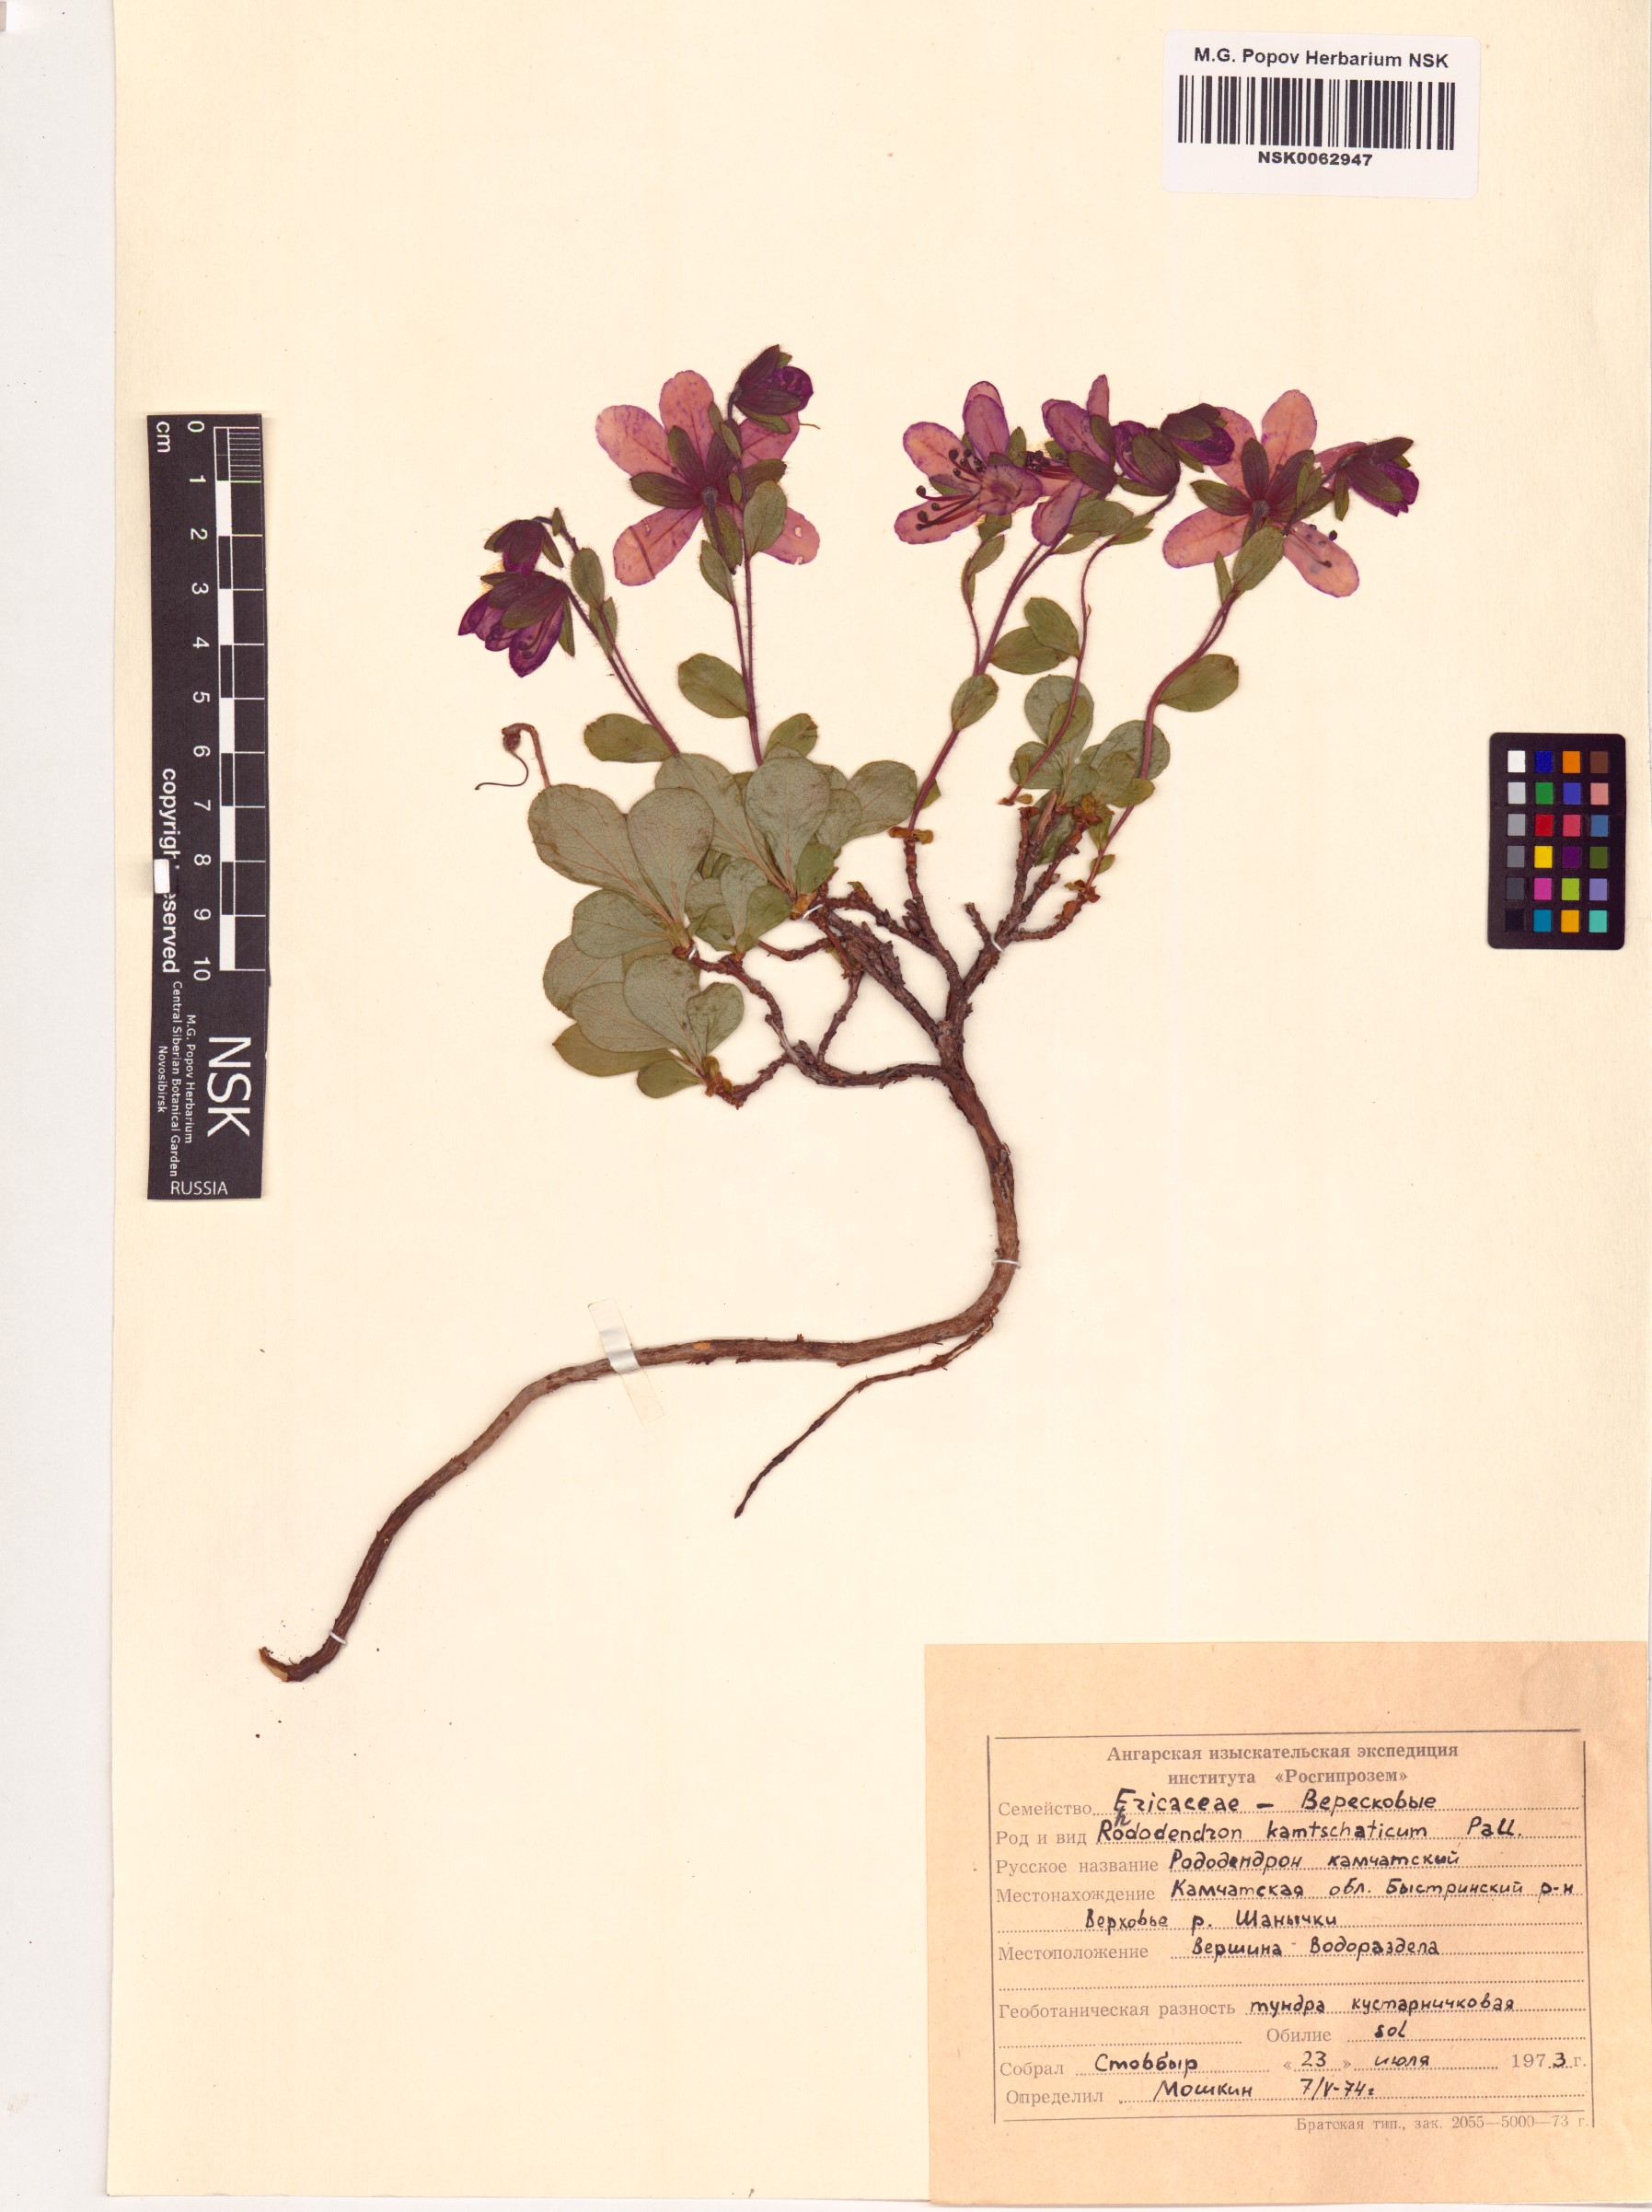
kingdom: Plantae
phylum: Tracheophyta
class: Magnoliopsida
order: Ericales
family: Ericaceae
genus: Rhododendron
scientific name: Rhododendron camtschaticum
